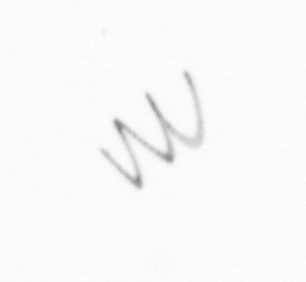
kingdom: Chromista
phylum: Ochrophyta
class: Bacillariophyceae
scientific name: Bacillariophyceae
